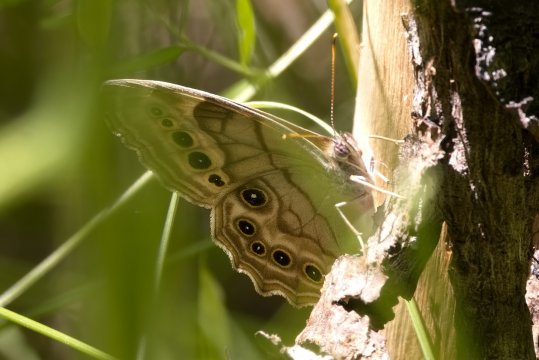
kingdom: Animalia
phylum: Arthropoda
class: Insecta
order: Lepidoptera
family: Nymphalidae
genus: Lethe
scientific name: Lethe anthedon
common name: Northern Pearly-Eye
